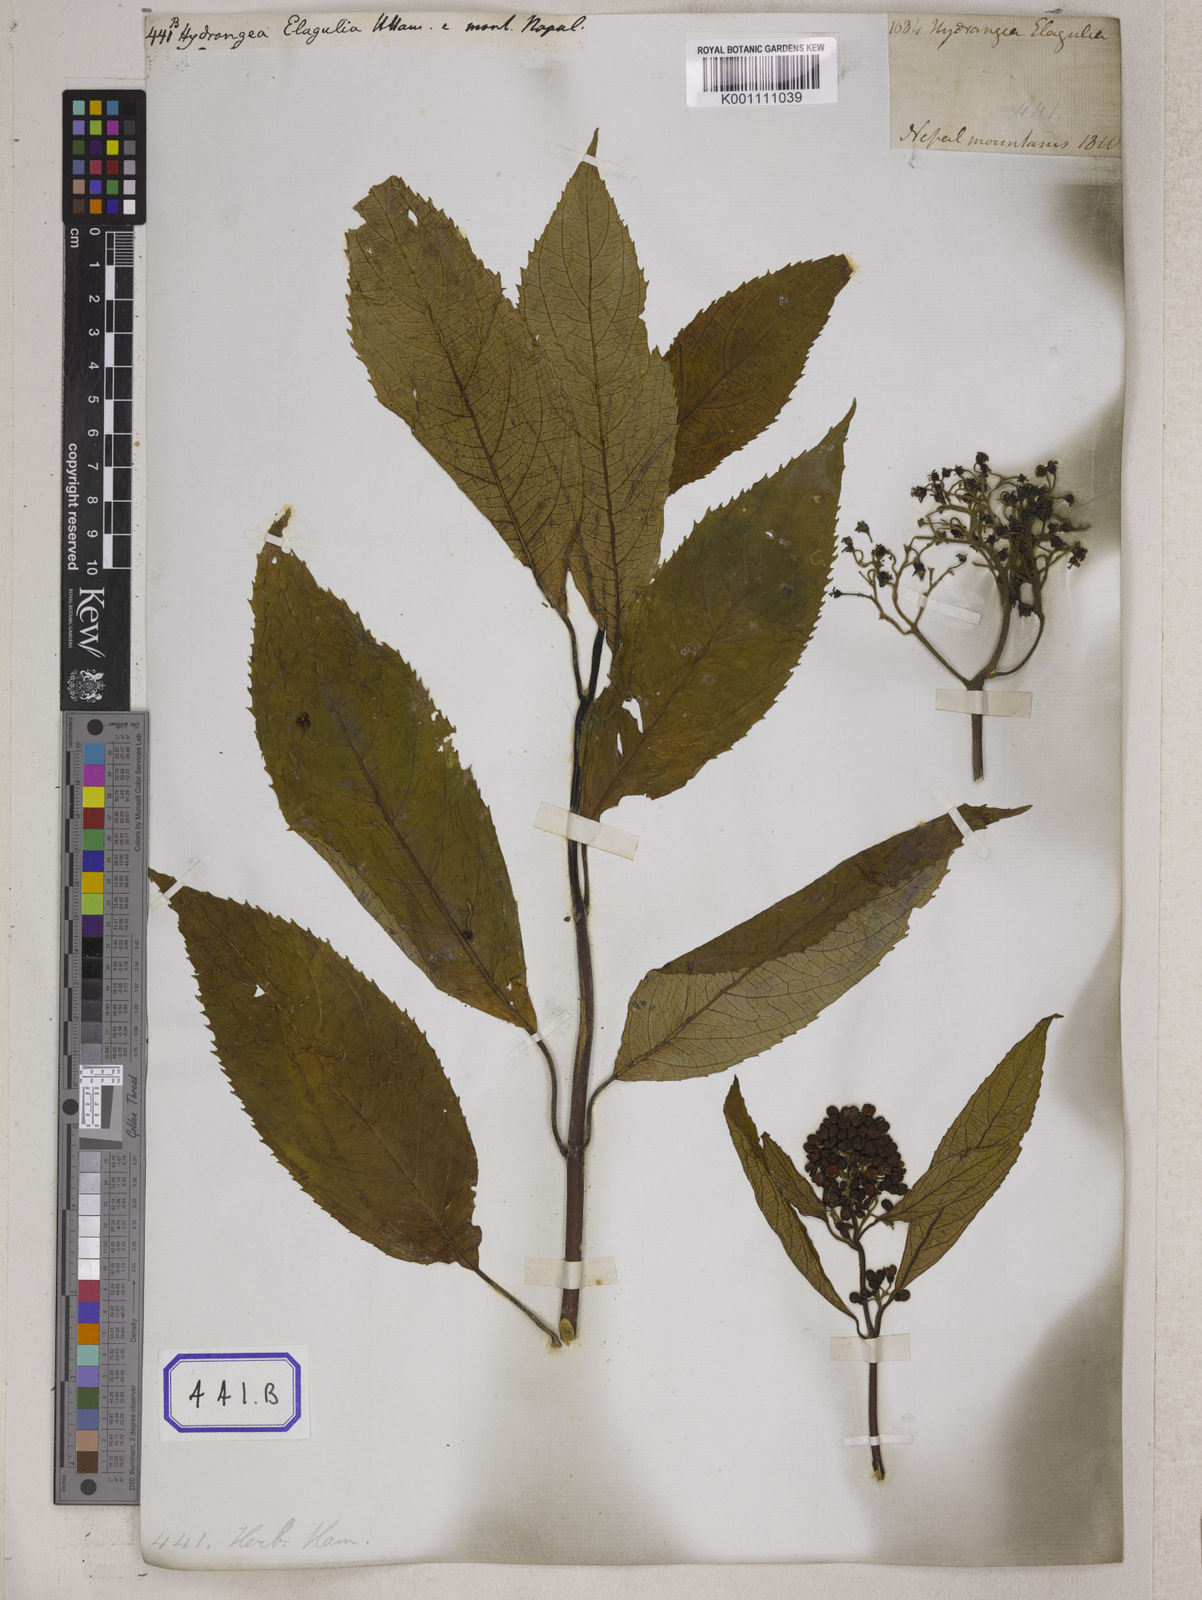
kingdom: Plantae
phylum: Tracheophyta
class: Magnoliopsida
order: Saxifragales
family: Saxifragaceae
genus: Saxifraga
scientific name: Saxifraga brachypoda
